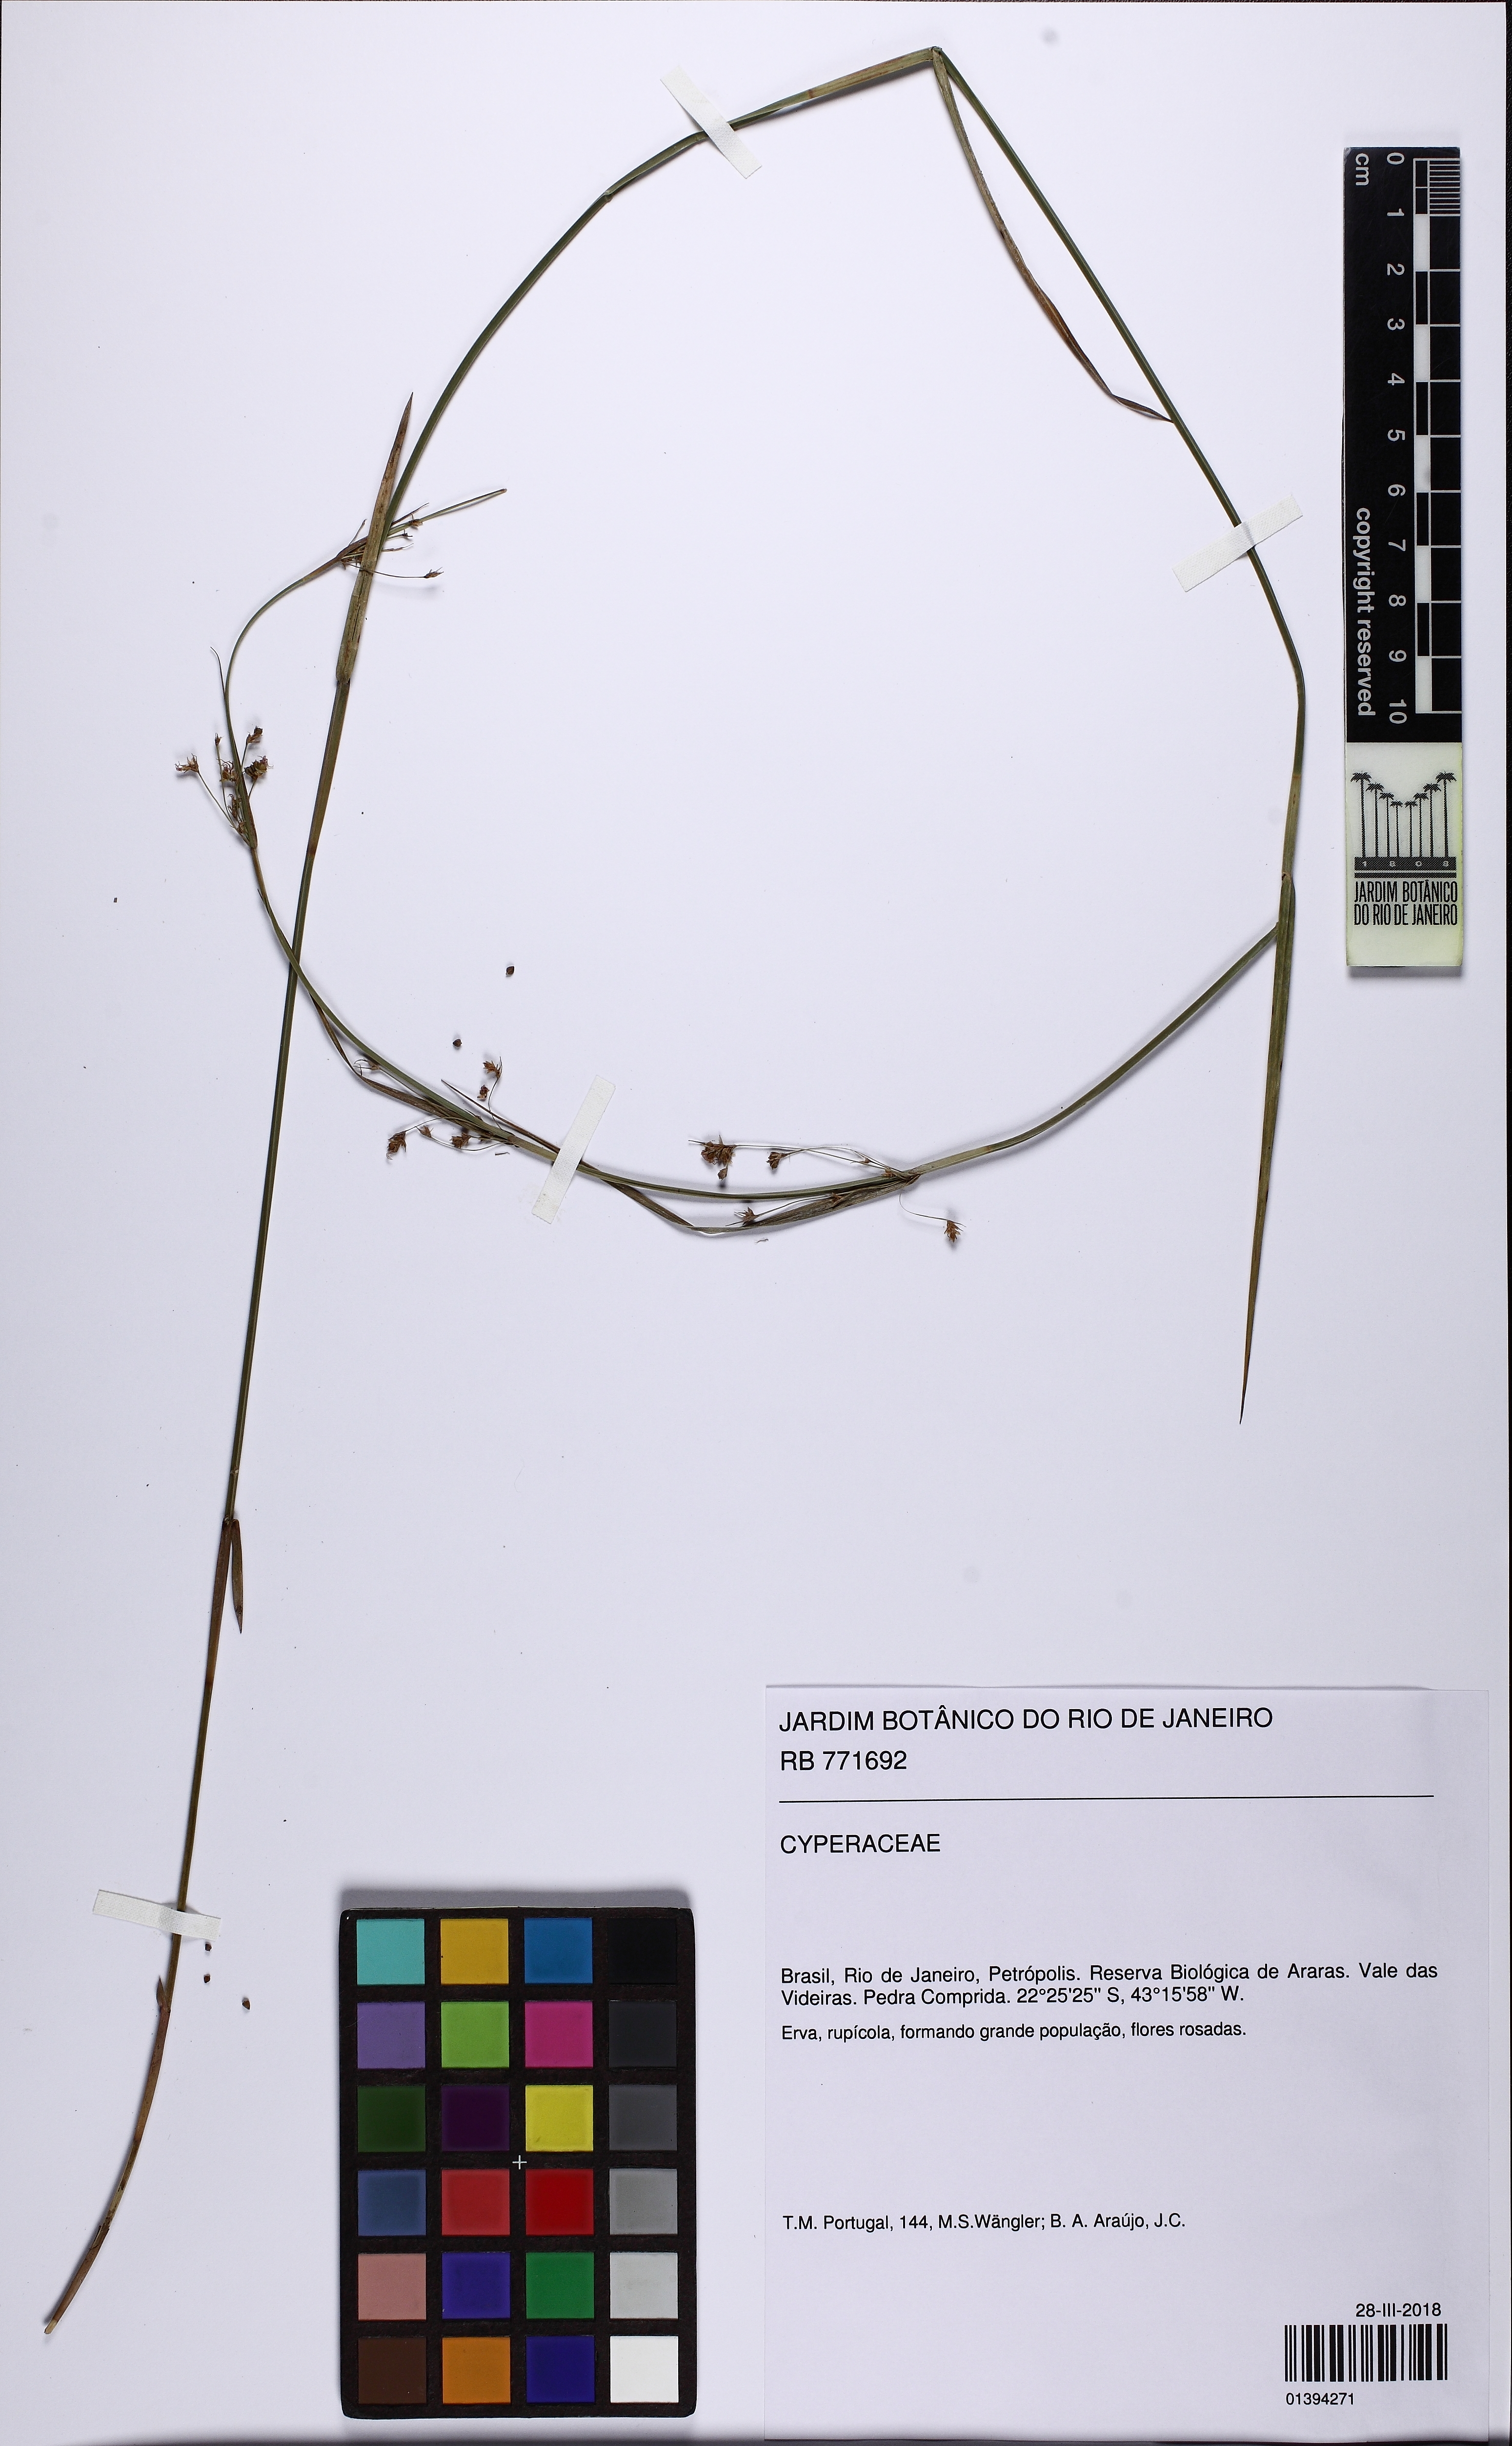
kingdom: Plantae
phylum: Tracheophyta
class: Liliopsida
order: Poales
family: Cyperaceae
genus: Cryptangium
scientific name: Cryptangium
